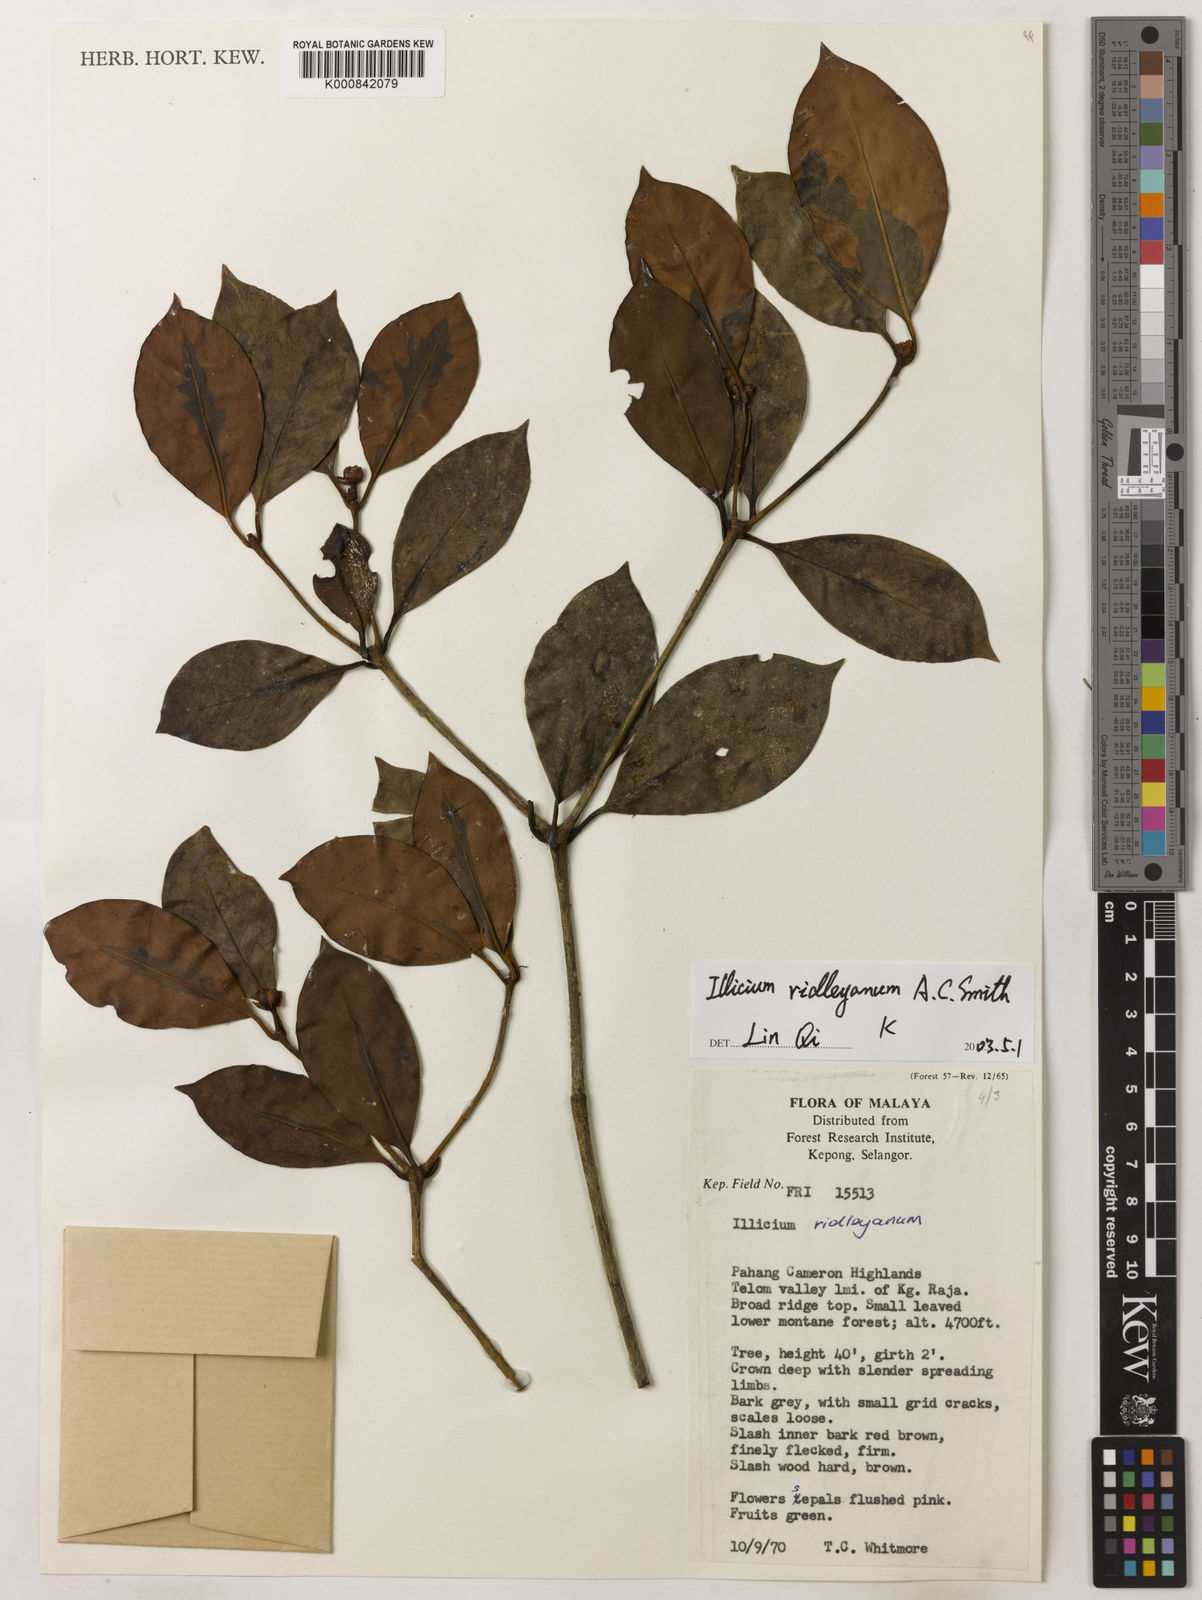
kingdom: Plantae
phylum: Tracheophyta
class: Magnoliopsida
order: Austrobaileyales
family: Schisandraceae
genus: Illicium
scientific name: Illicium ridleyanum
